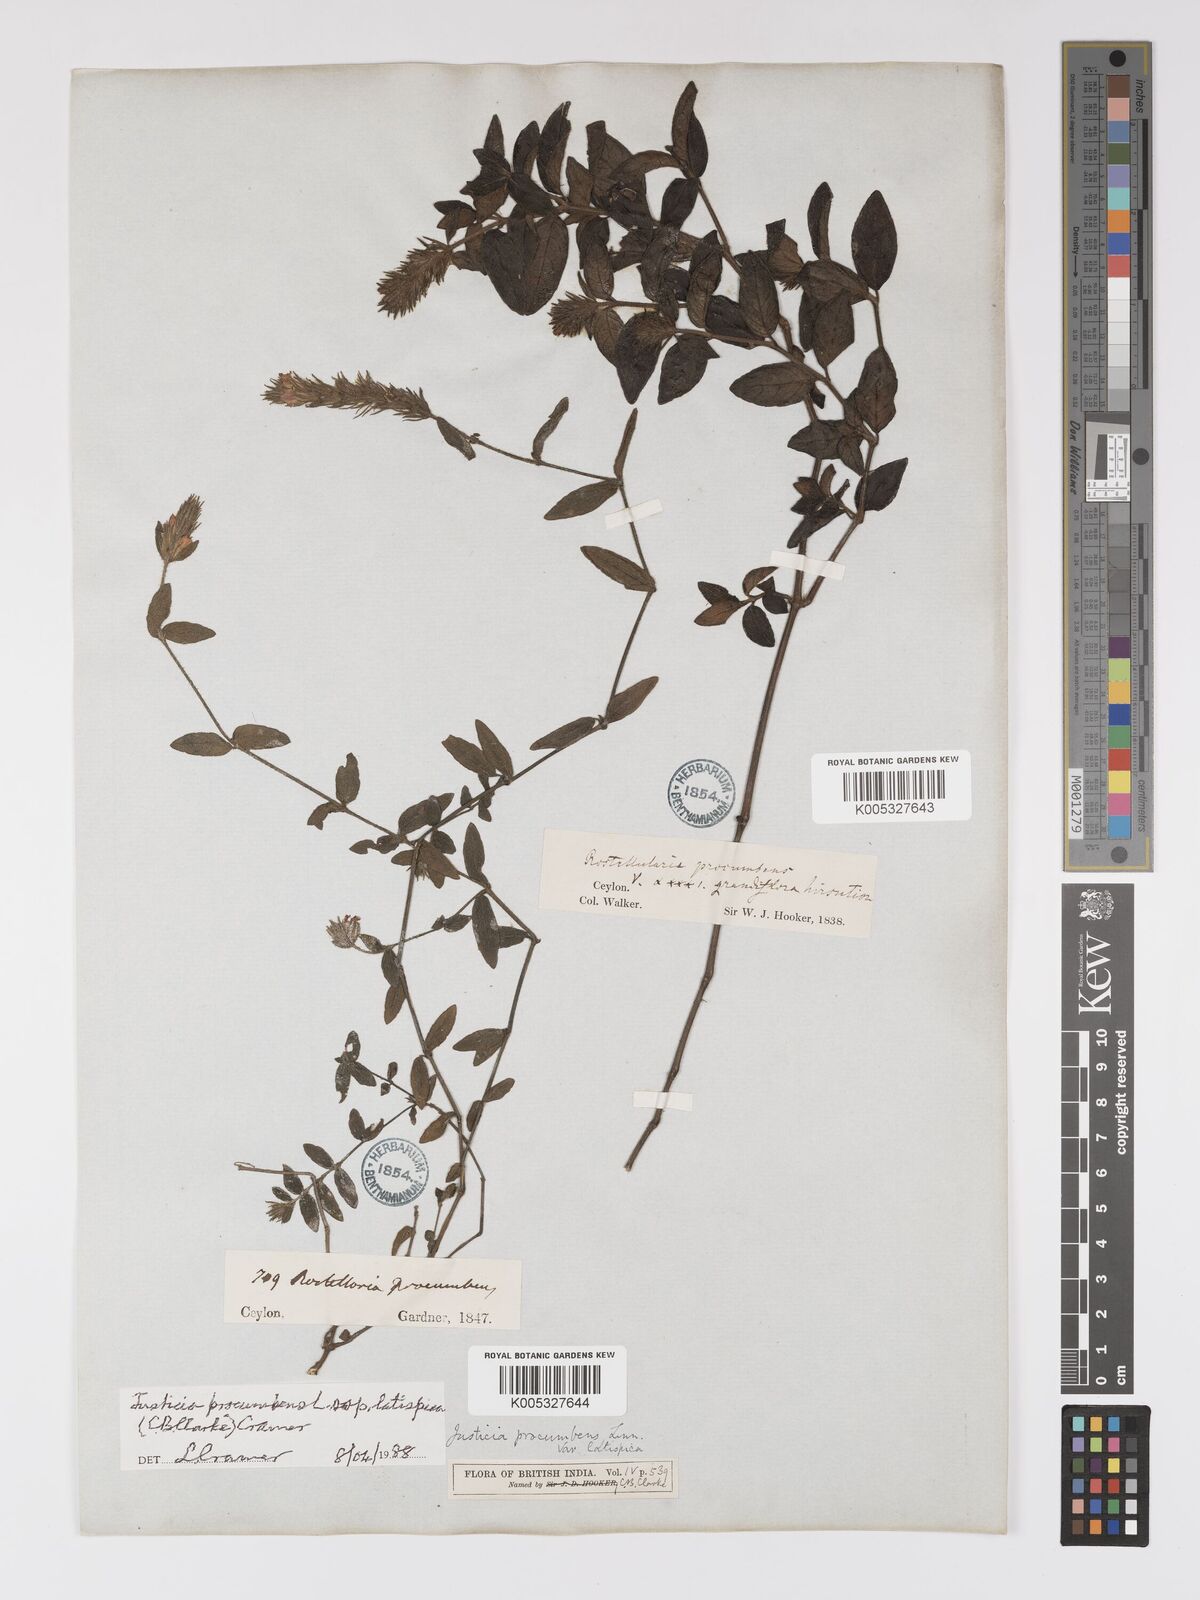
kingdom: Plantae
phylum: Tracheophyta
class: Magnoliopsida
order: Lamiales
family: Acanthaceae
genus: Rostellularia
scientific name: Rostellularia latispica
